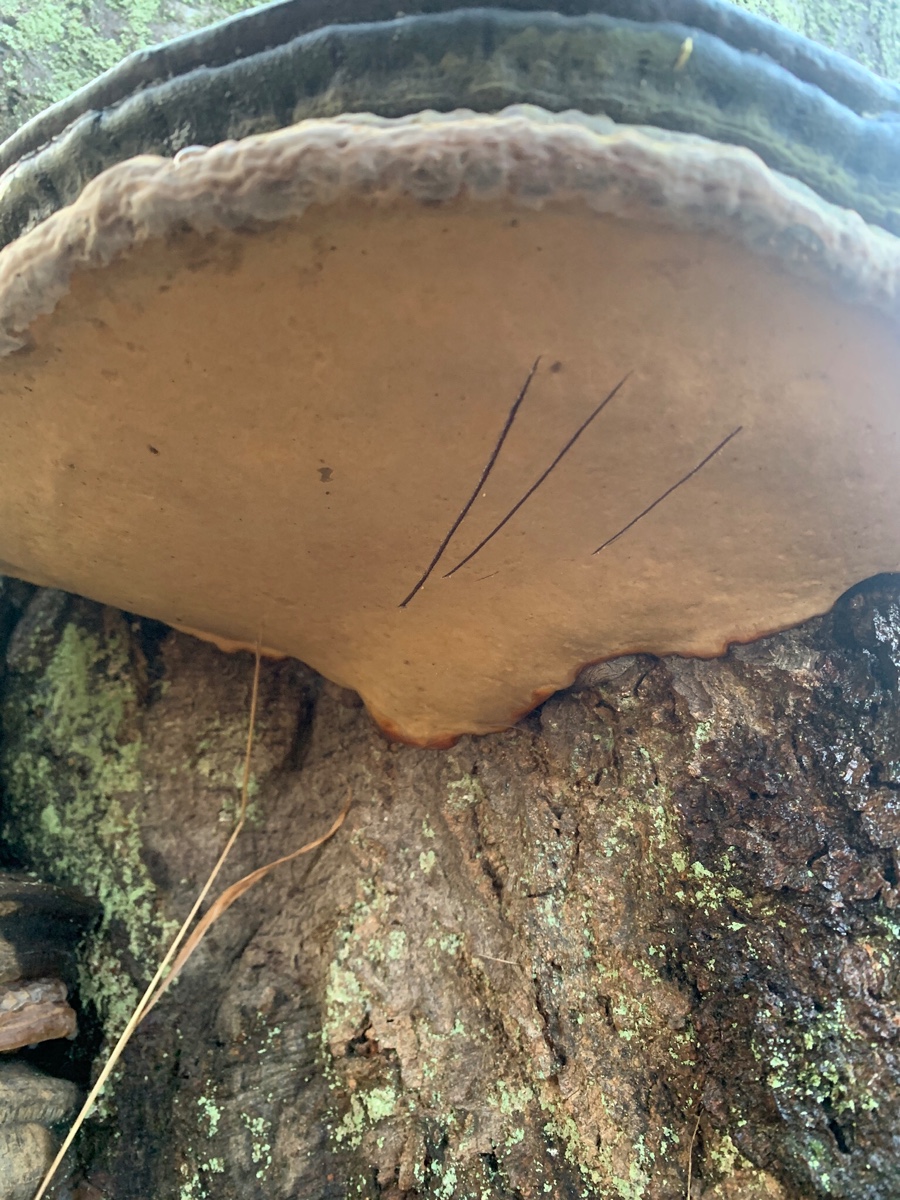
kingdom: Fungi
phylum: Basidiomycota
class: Agaricomycetes
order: Polyporales
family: Polyporaceae
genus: Ganoderma
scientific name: Ganoderma pfeifferi
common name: kobberrød lakporesvamp
